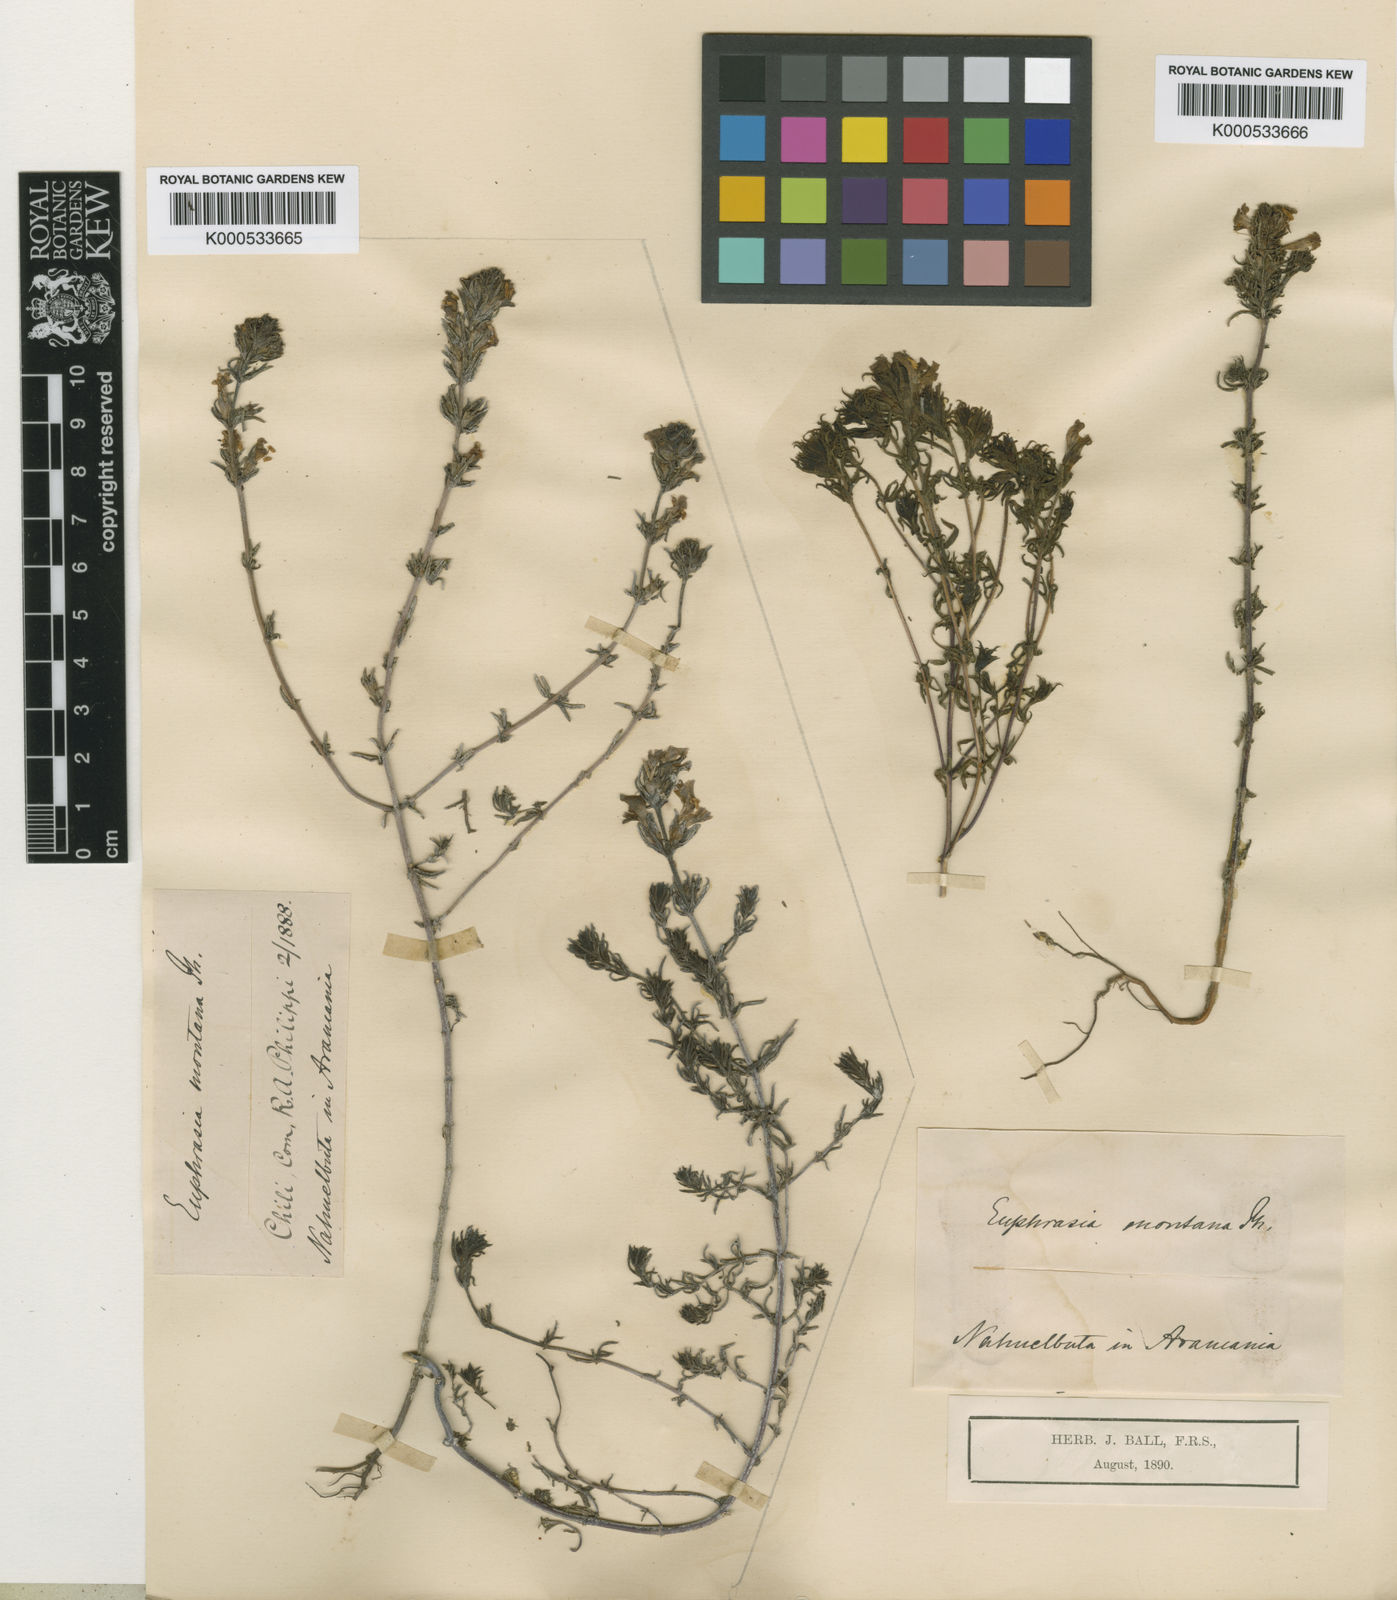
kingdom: Plantae
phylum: Tracheophyta
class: Magnoliopsida
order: Lamiales
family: Orobanchaceae
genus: Euphrasia
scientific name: Euphrasia philippii
